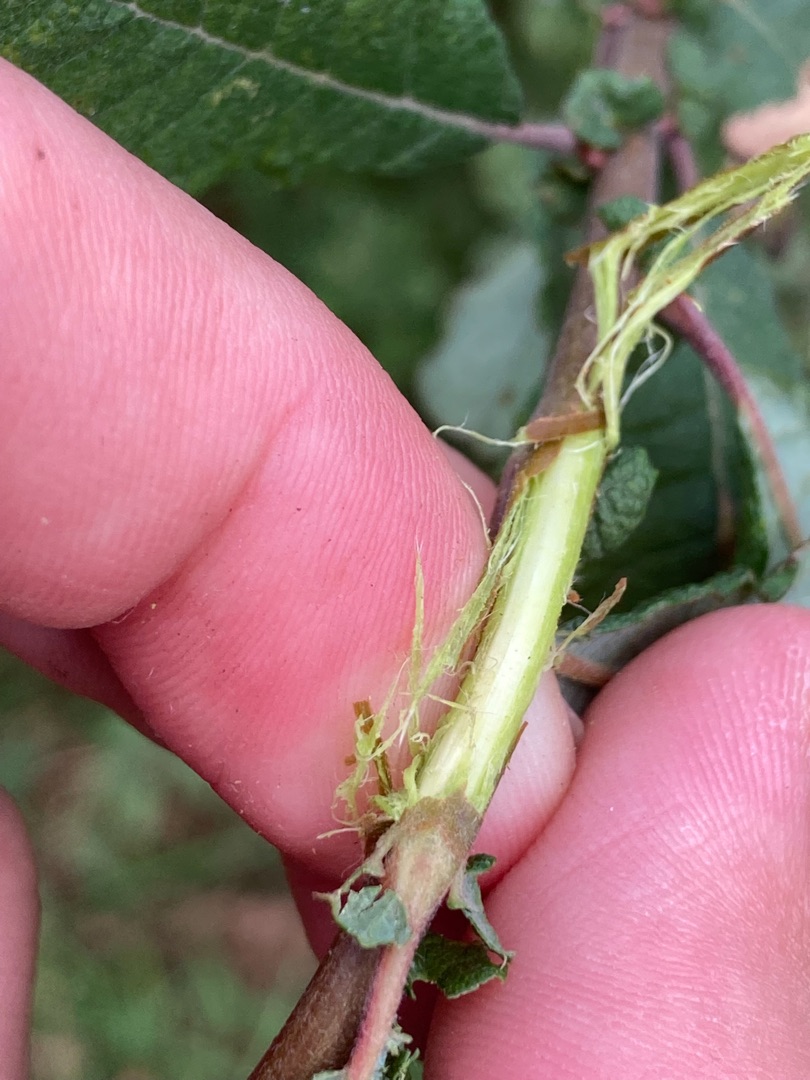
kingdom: Plantae
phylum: Tracheophyta
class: Magnoliopsida
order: Malpighiales
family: Salicaceae
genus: Salix
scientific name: Salix aurita
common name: Øret pil
